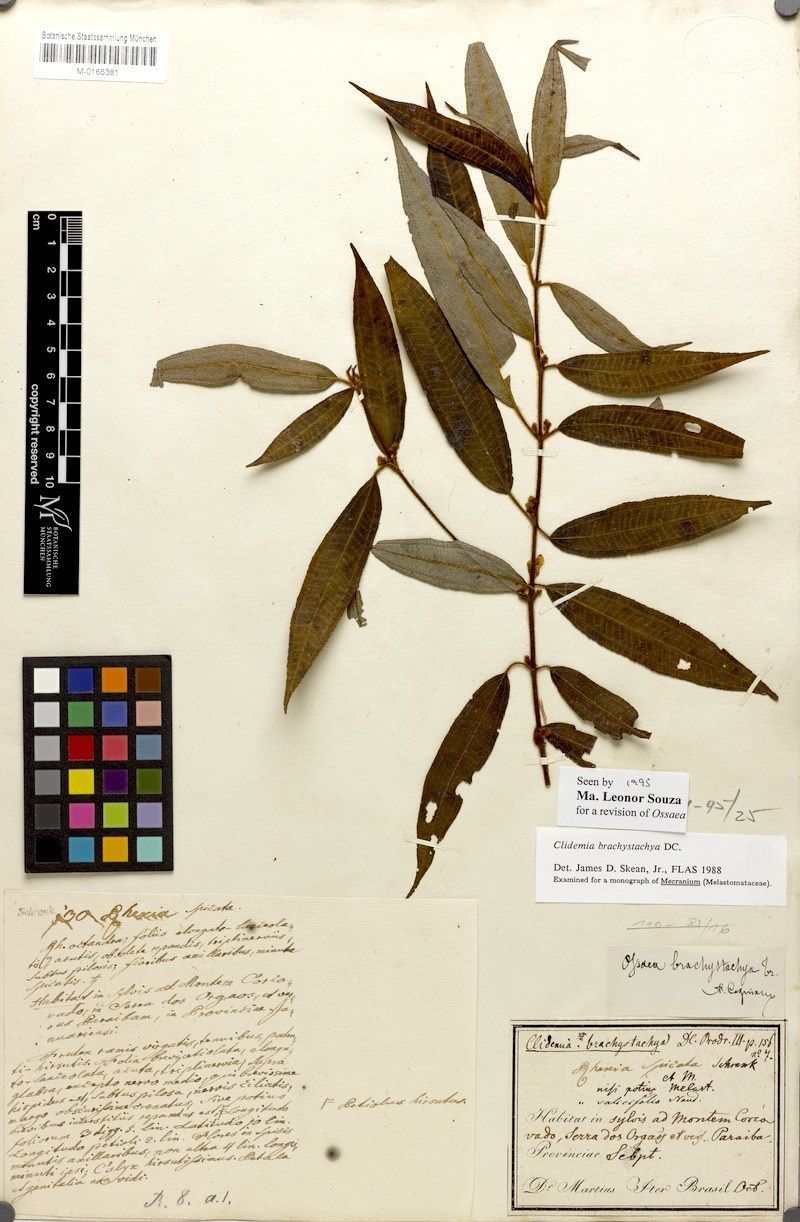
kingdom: Plantae
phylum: Tracheophyta
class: Magnoliopsida
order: Myrtales
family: Melastomataceae
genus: Miconia
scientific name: Miconia amygdaloides
